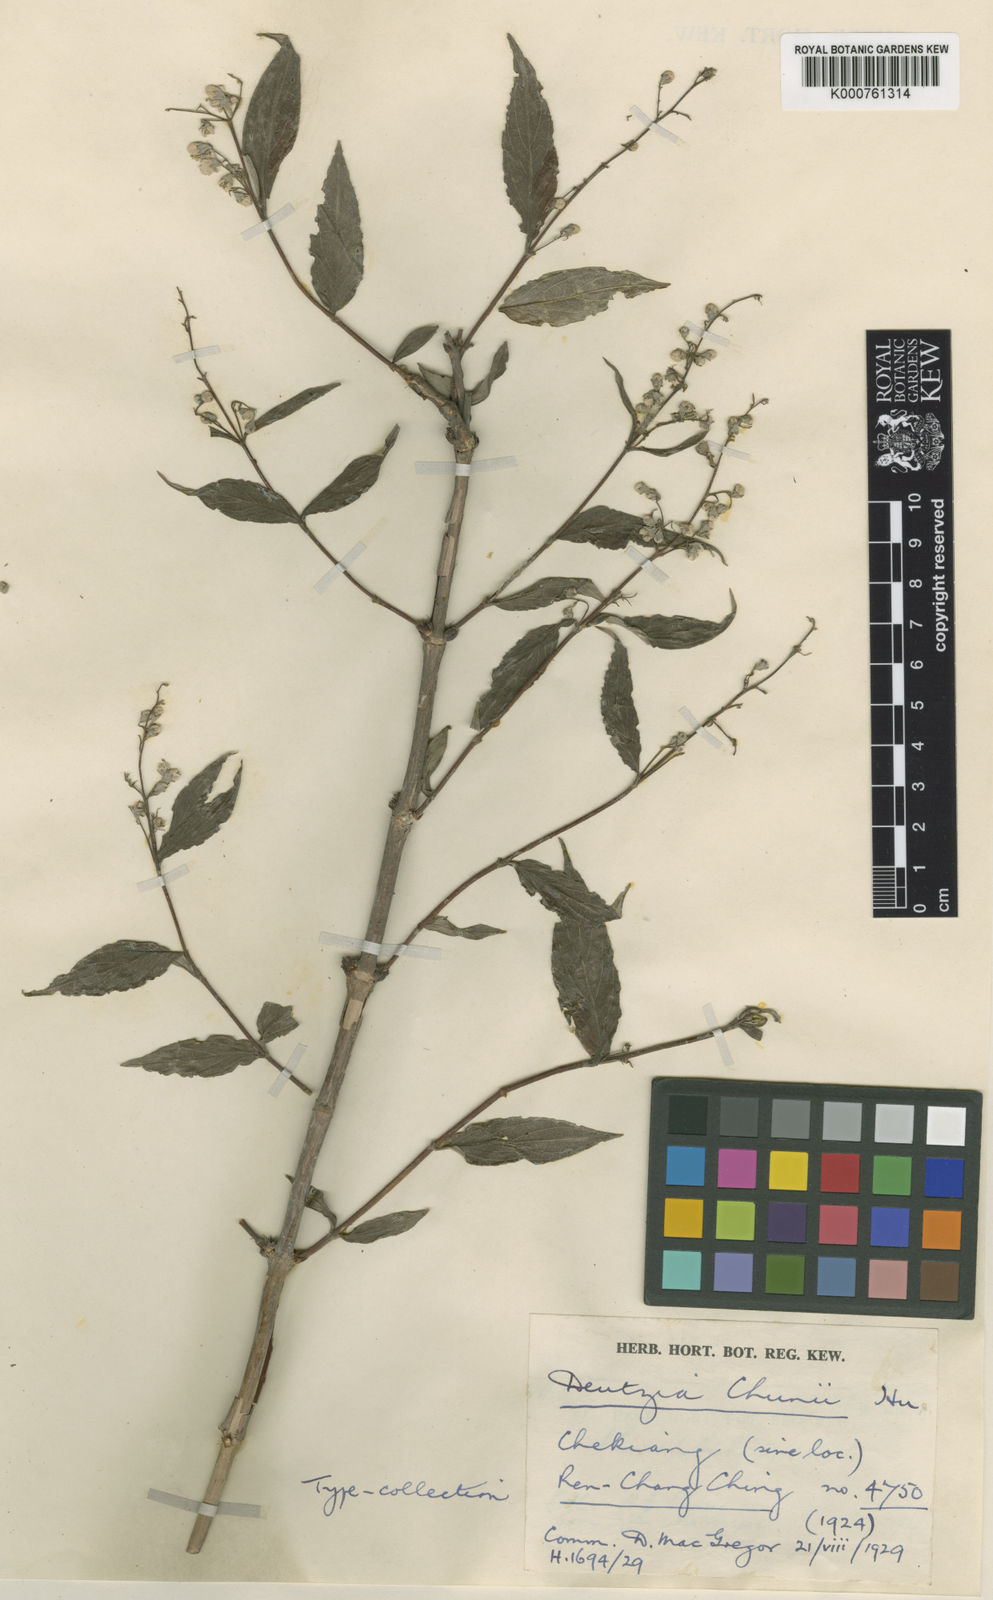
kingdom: Plantae
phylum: Tracheophyta
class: Magnoliopsida
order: Cornales
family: Hydrangeaceae
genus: Deutzia
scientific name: Deutzia ningpoensis
